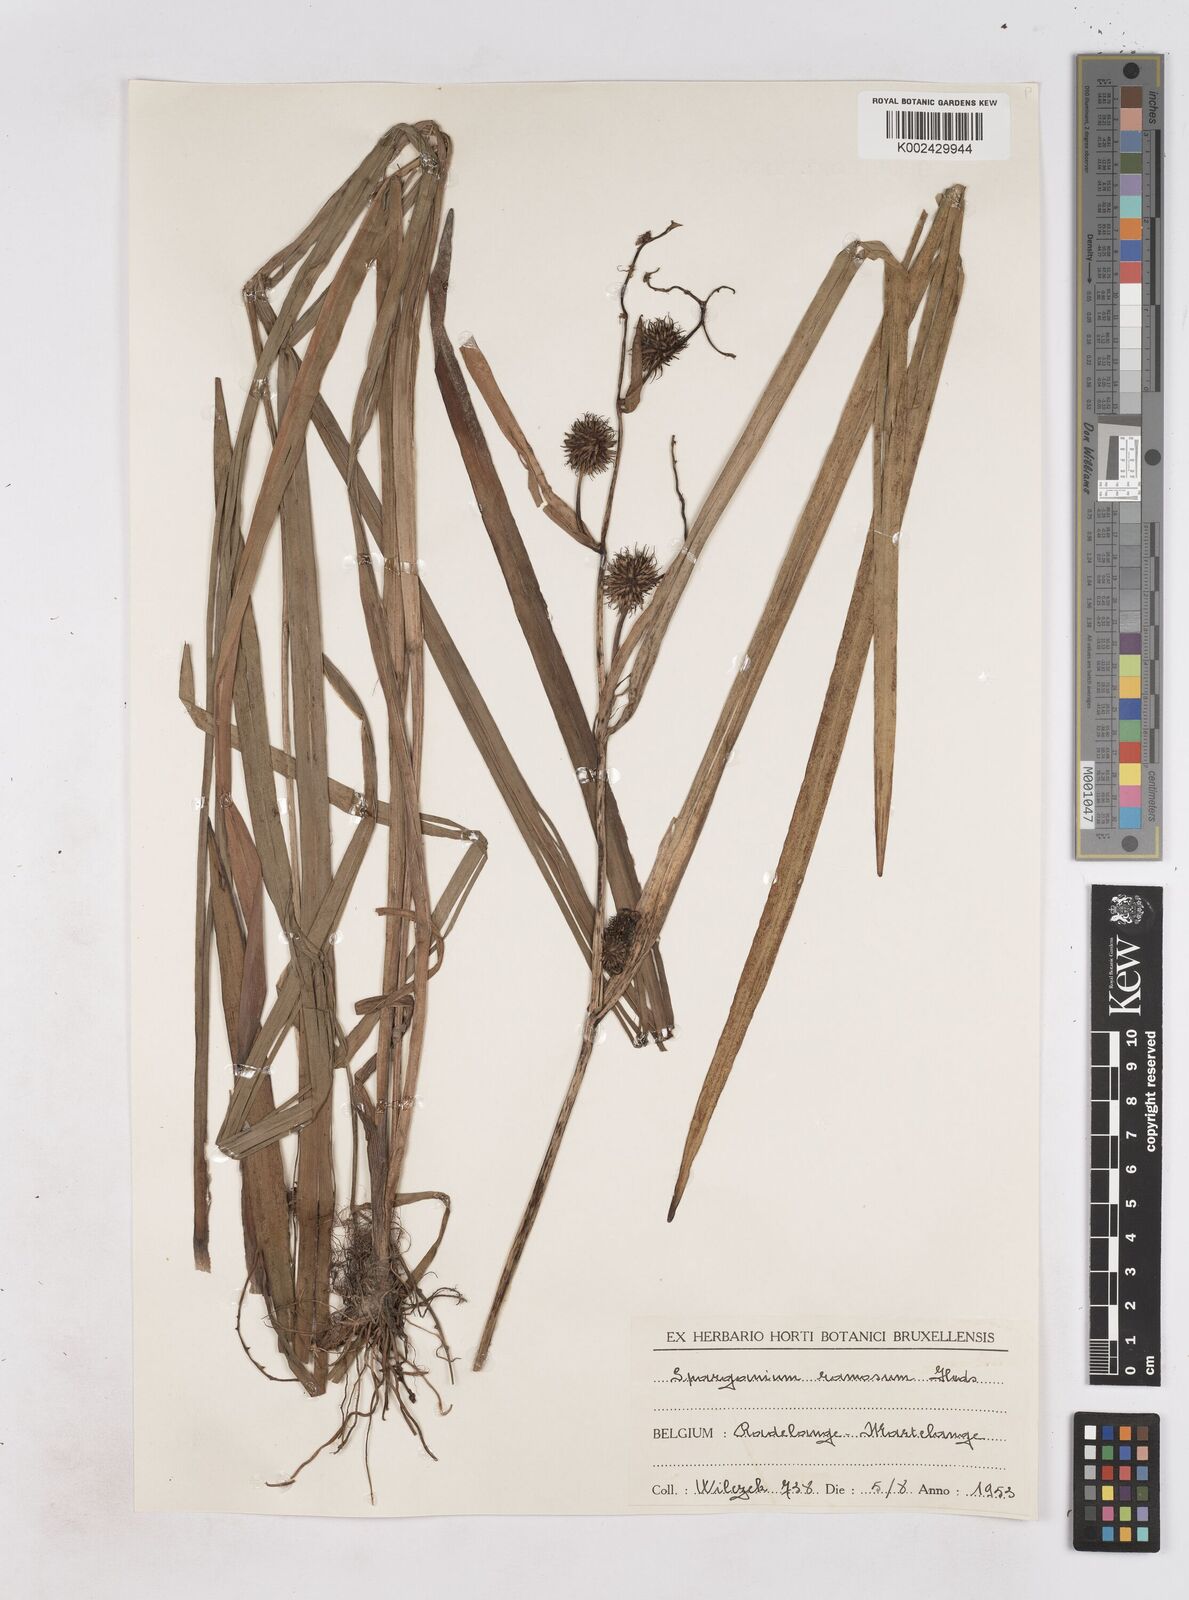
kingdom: Plantae
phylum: Tracheophyta
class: Liliopsida
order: Poales
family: Typhaceae
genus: Sparganium
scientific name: Sparganium erectum
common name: Branched bur-reed
